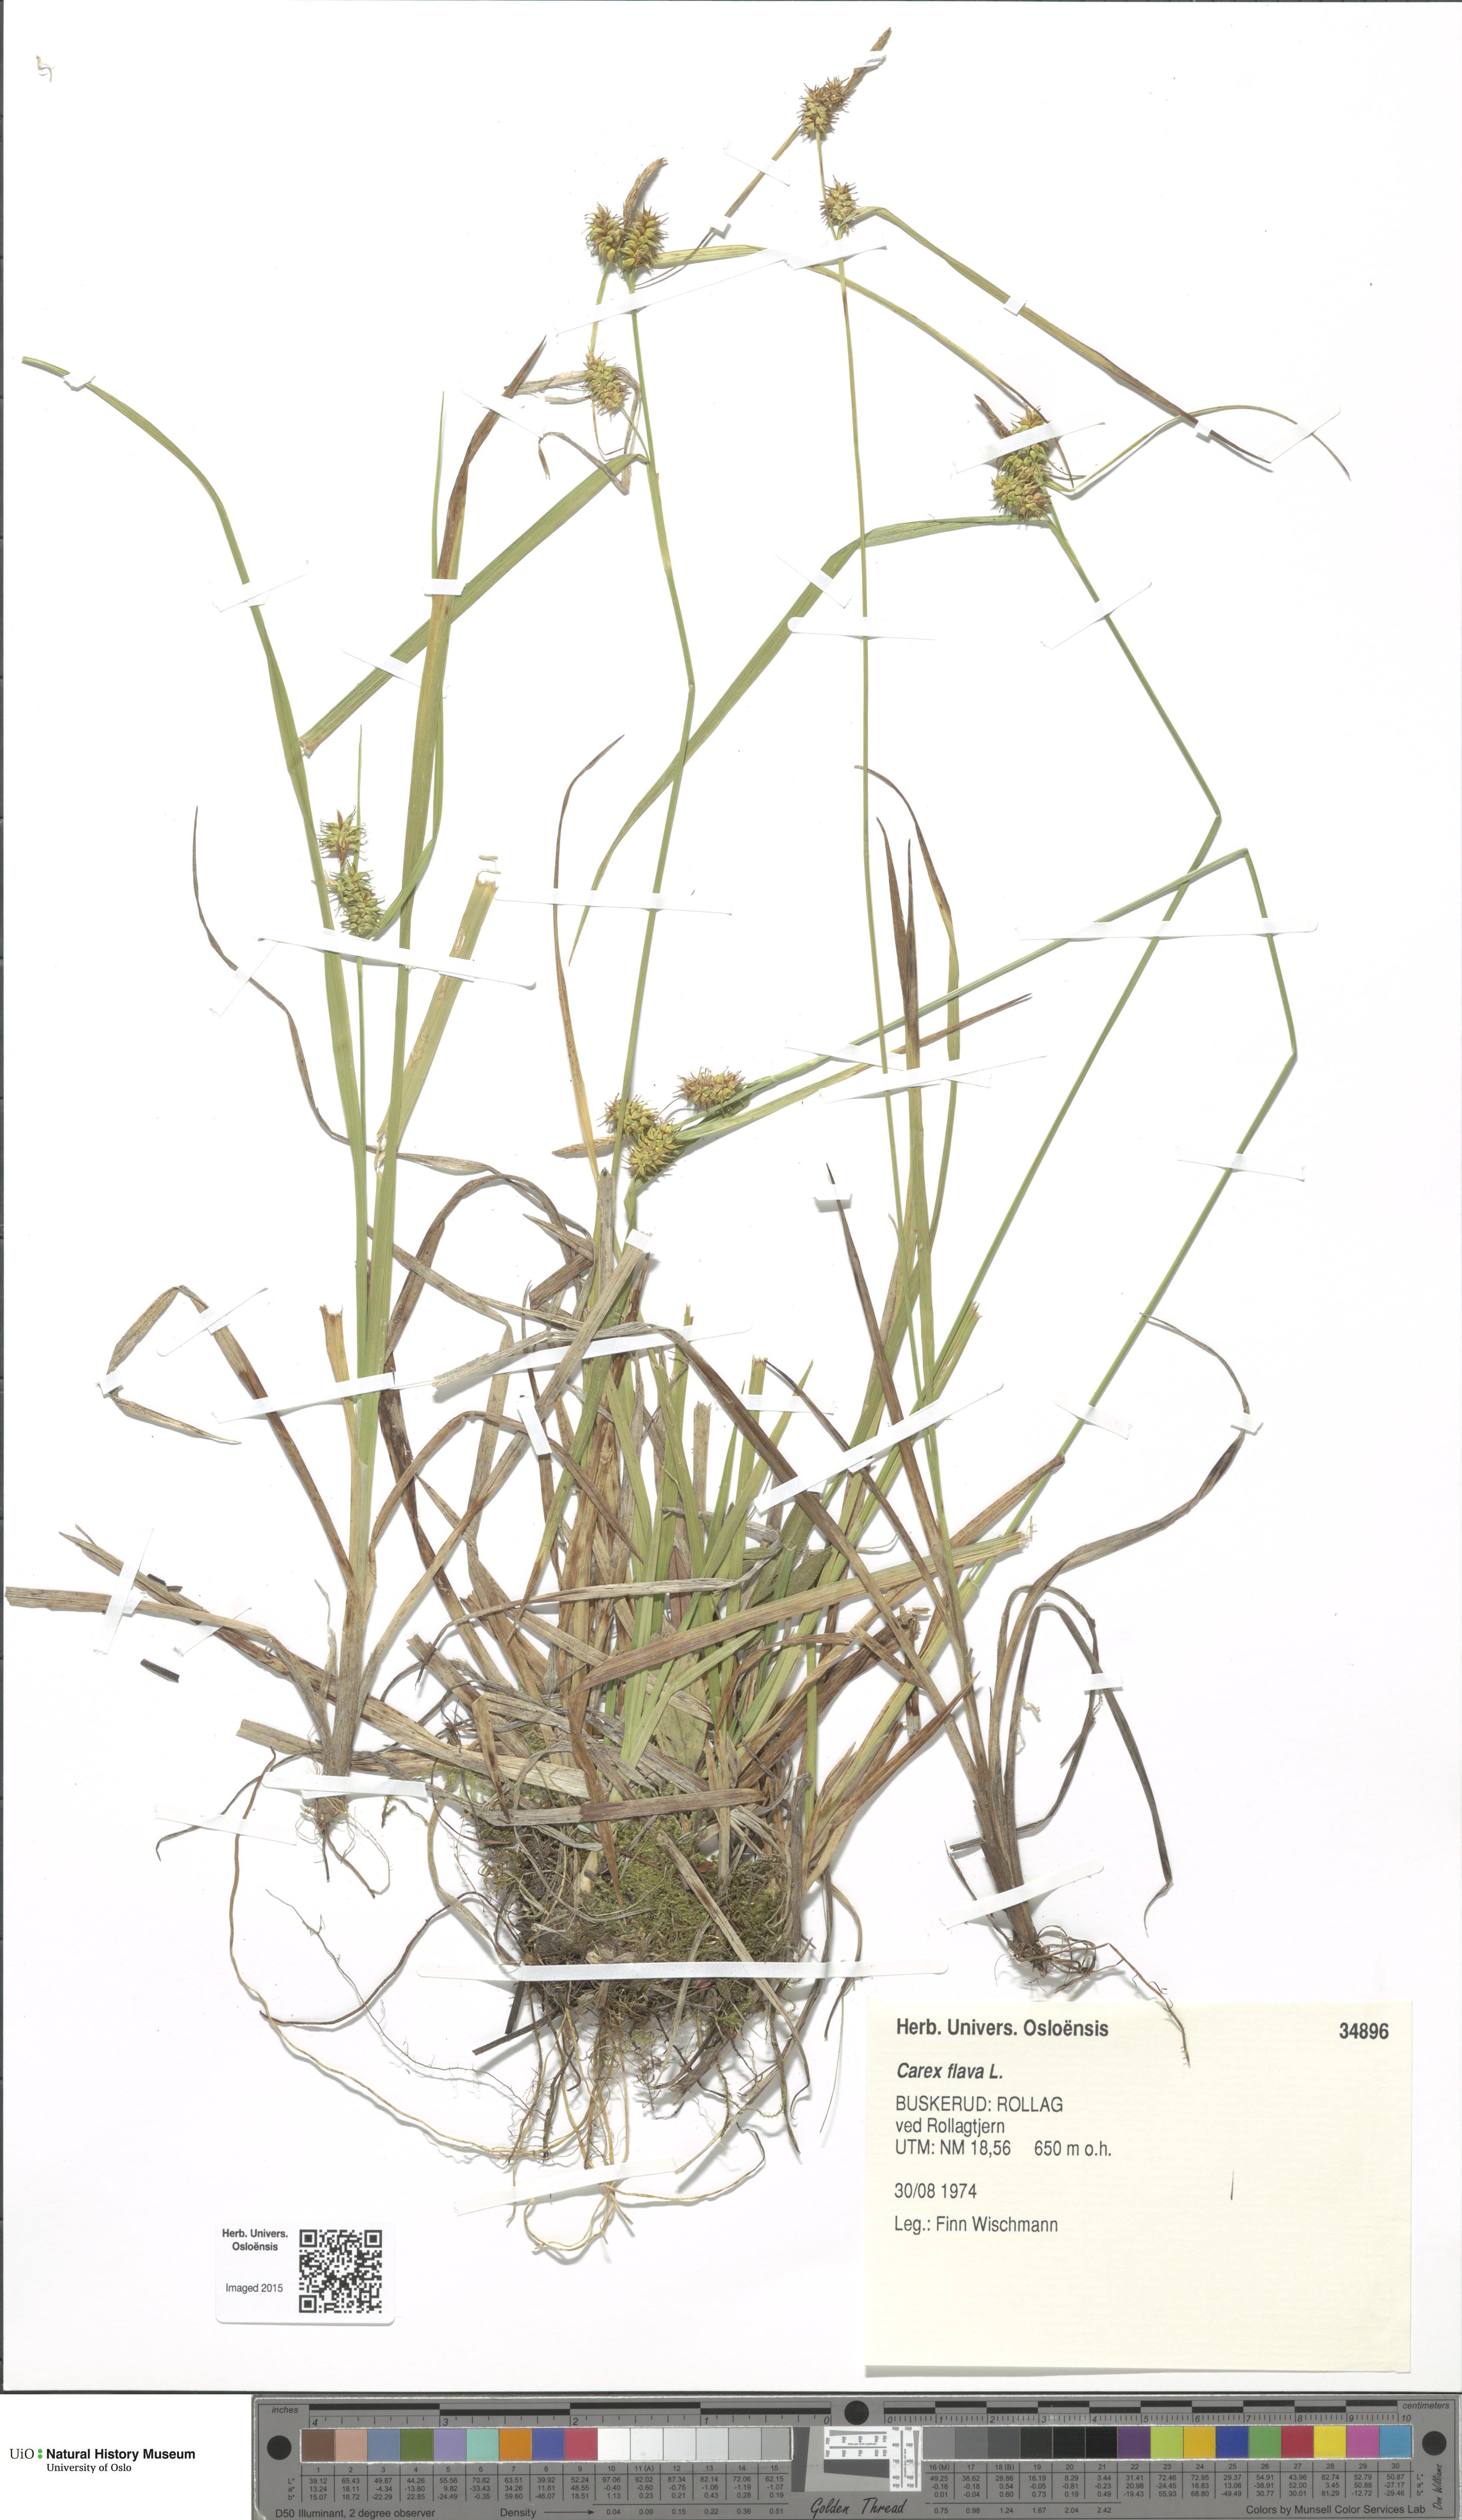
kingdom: Plantae
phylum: Tracheophyta
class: Liliopsida
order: Poales
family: Cyperaceae
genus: Carex
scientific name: Carex flava
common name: Large yellow-sedge
